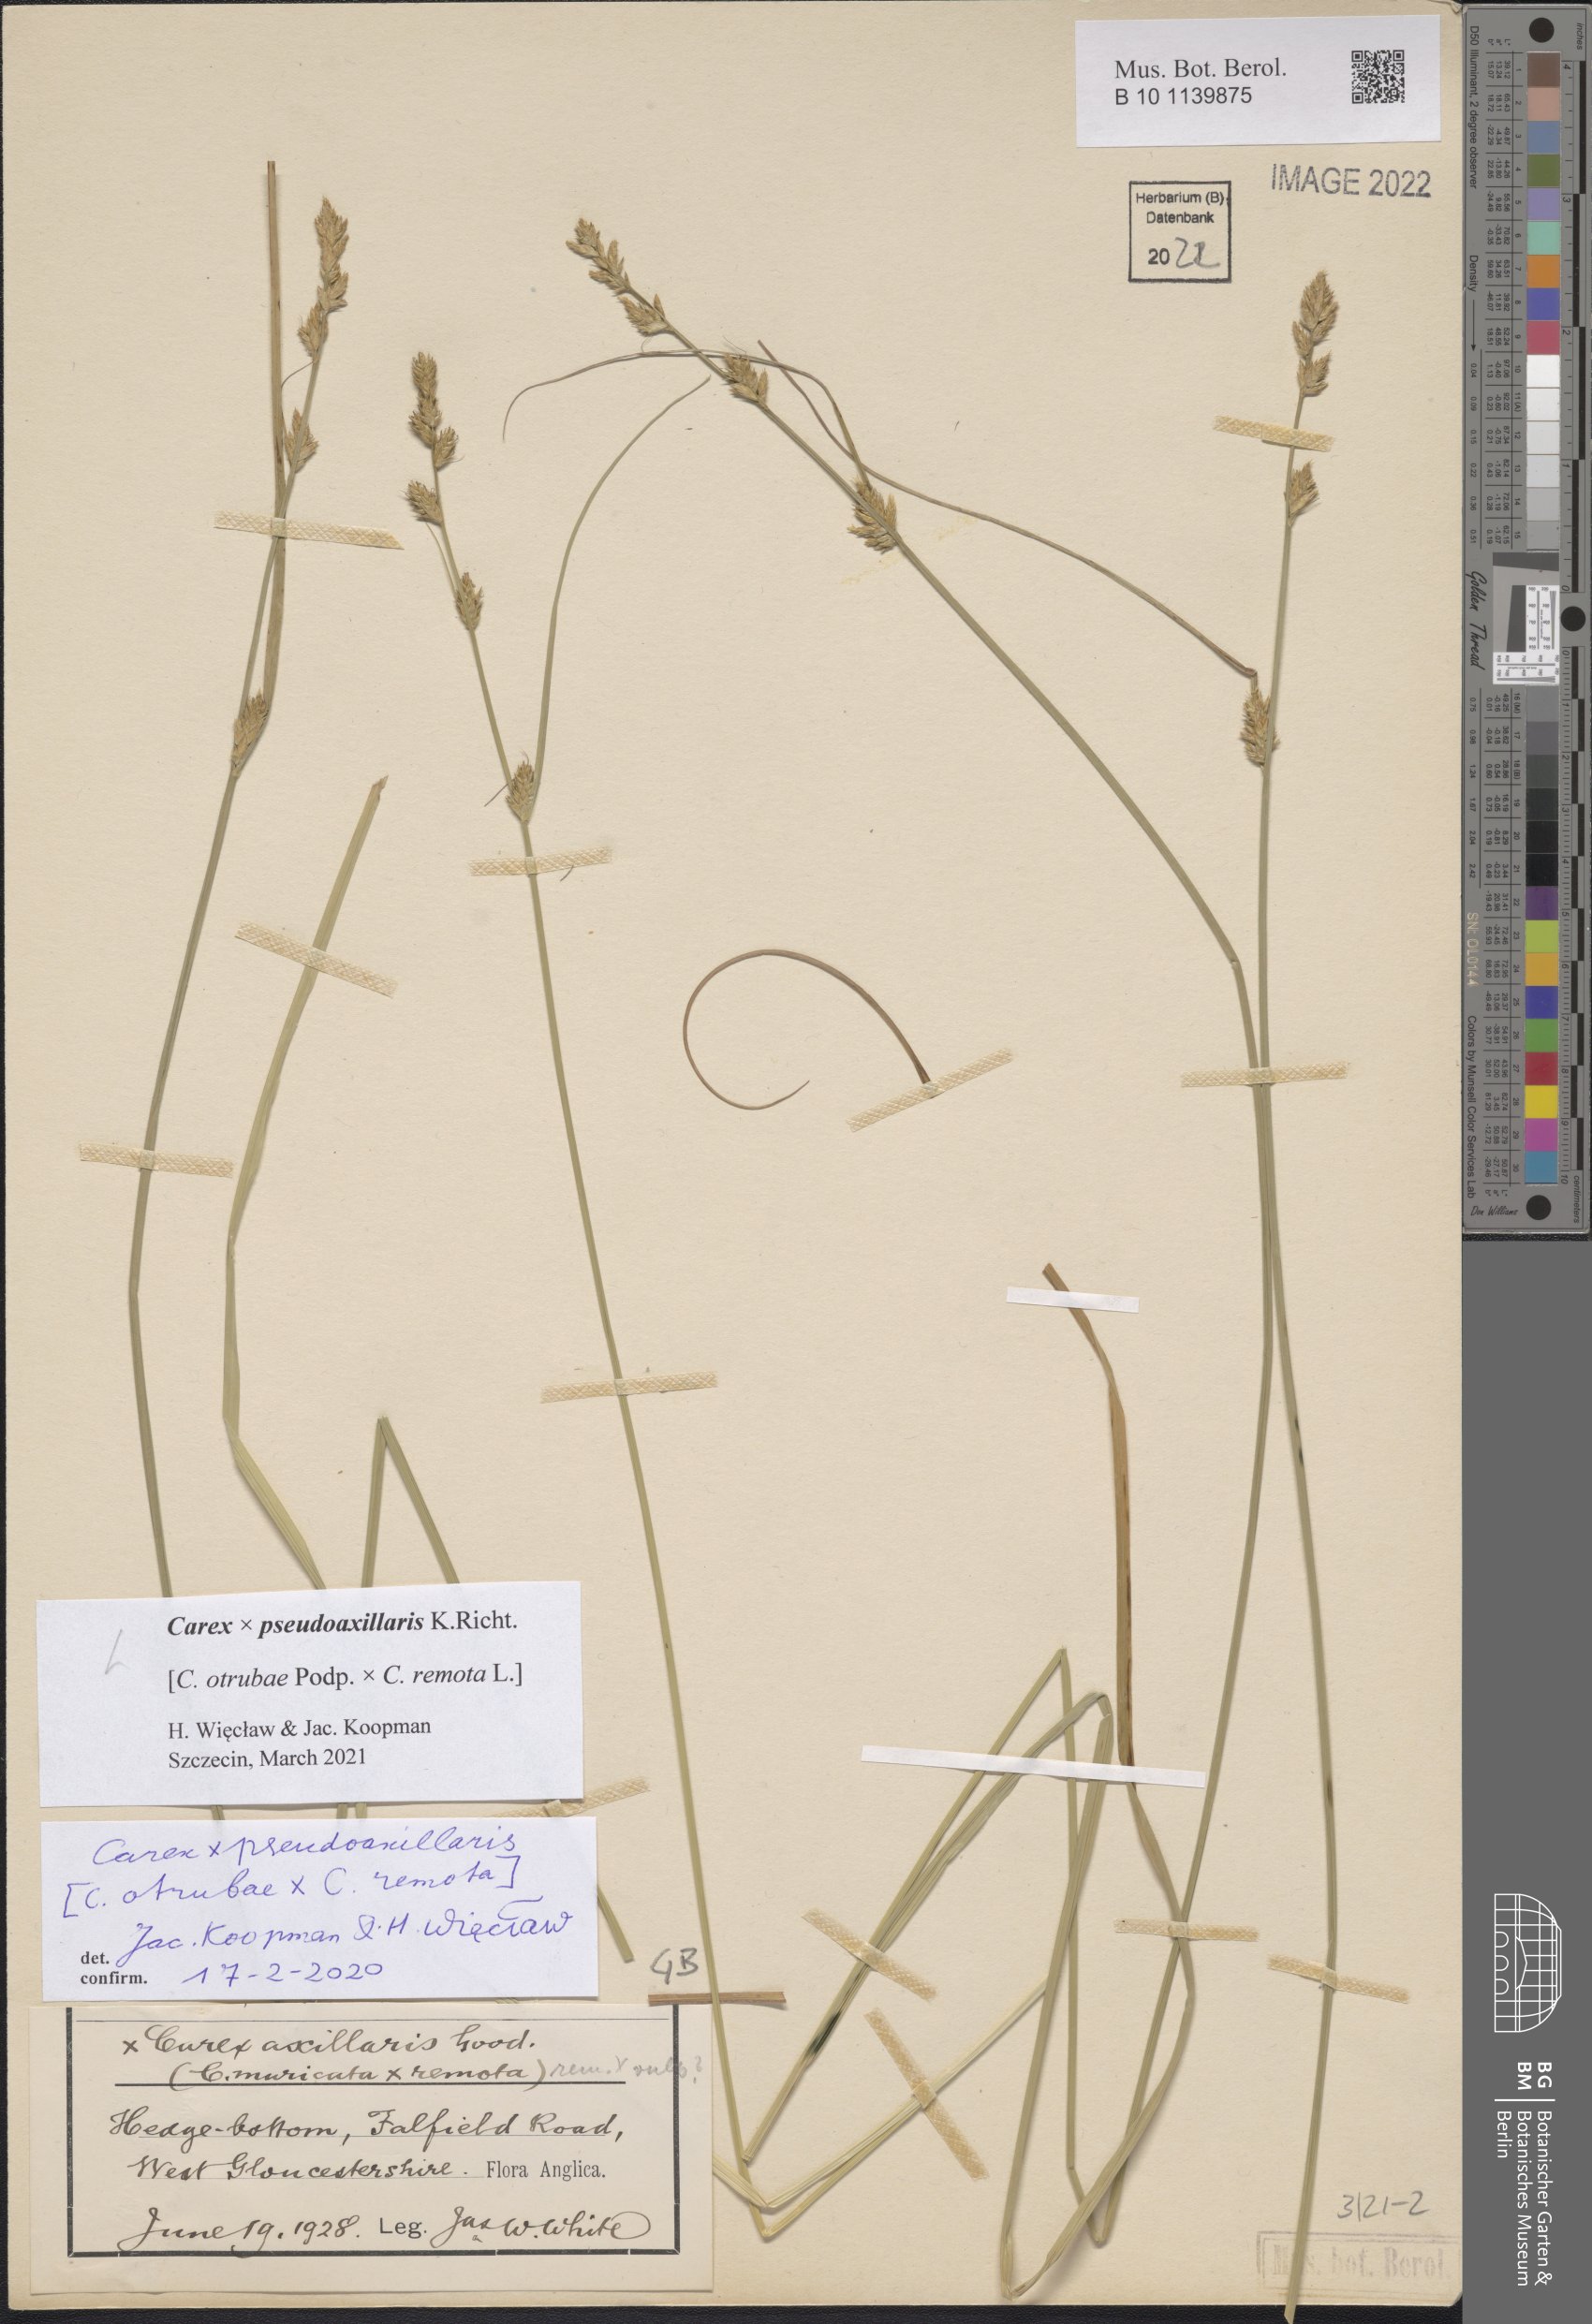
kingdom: Plantae
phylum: Tracheophyta
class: Liliopsida
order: Poales
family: Cyperaceae
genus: Carex
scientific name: Carex pseudoaxillaris
